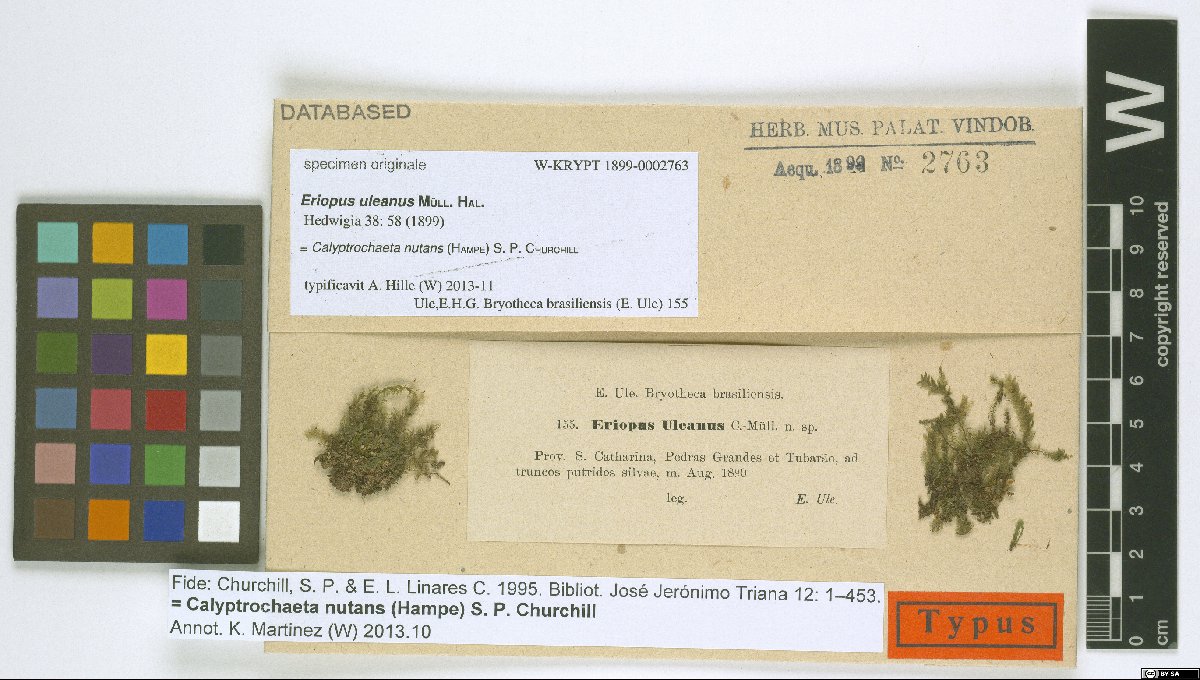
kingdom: Animalia
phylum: Chordata
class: Aves
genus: Eriopus
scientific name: Eriopus
